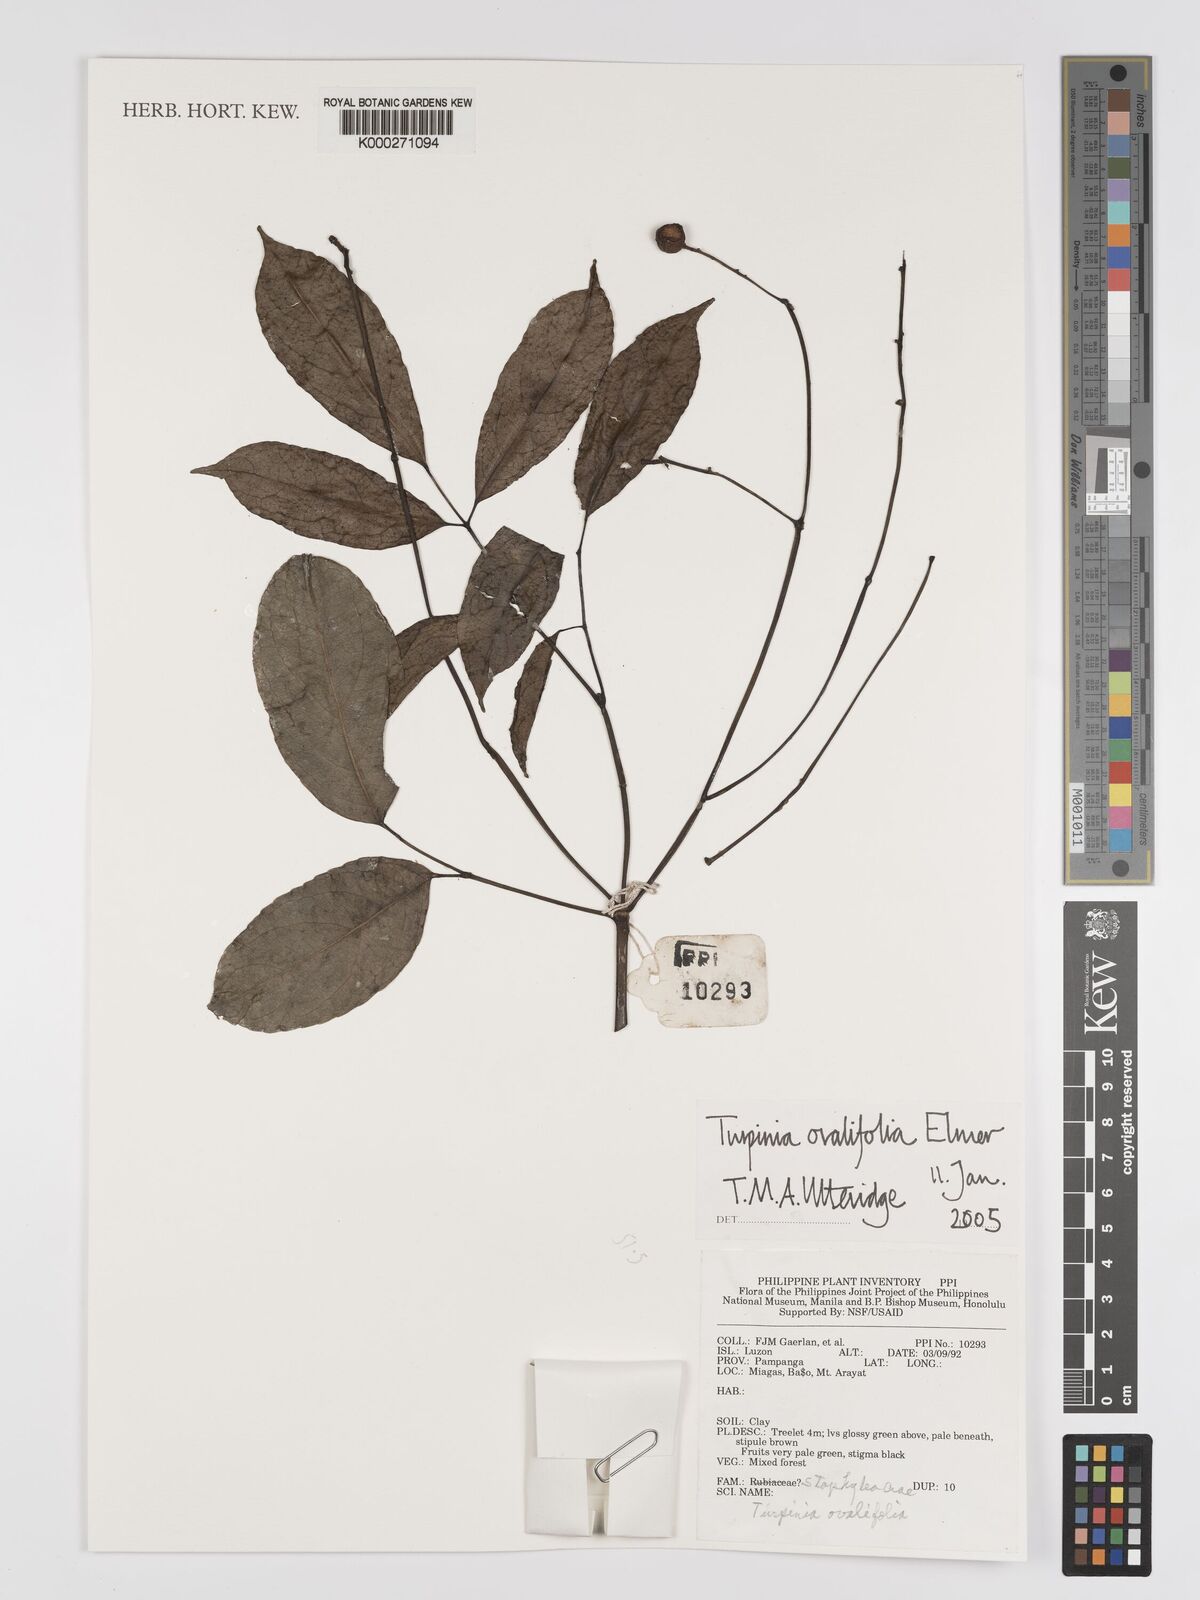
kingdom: Plantae
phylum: Tracheophyta
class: Magnoliopsida
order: Crossosomatales
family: Staphyleaceae
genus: Dalrympelea
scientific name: Dalrympelea trifoliata
